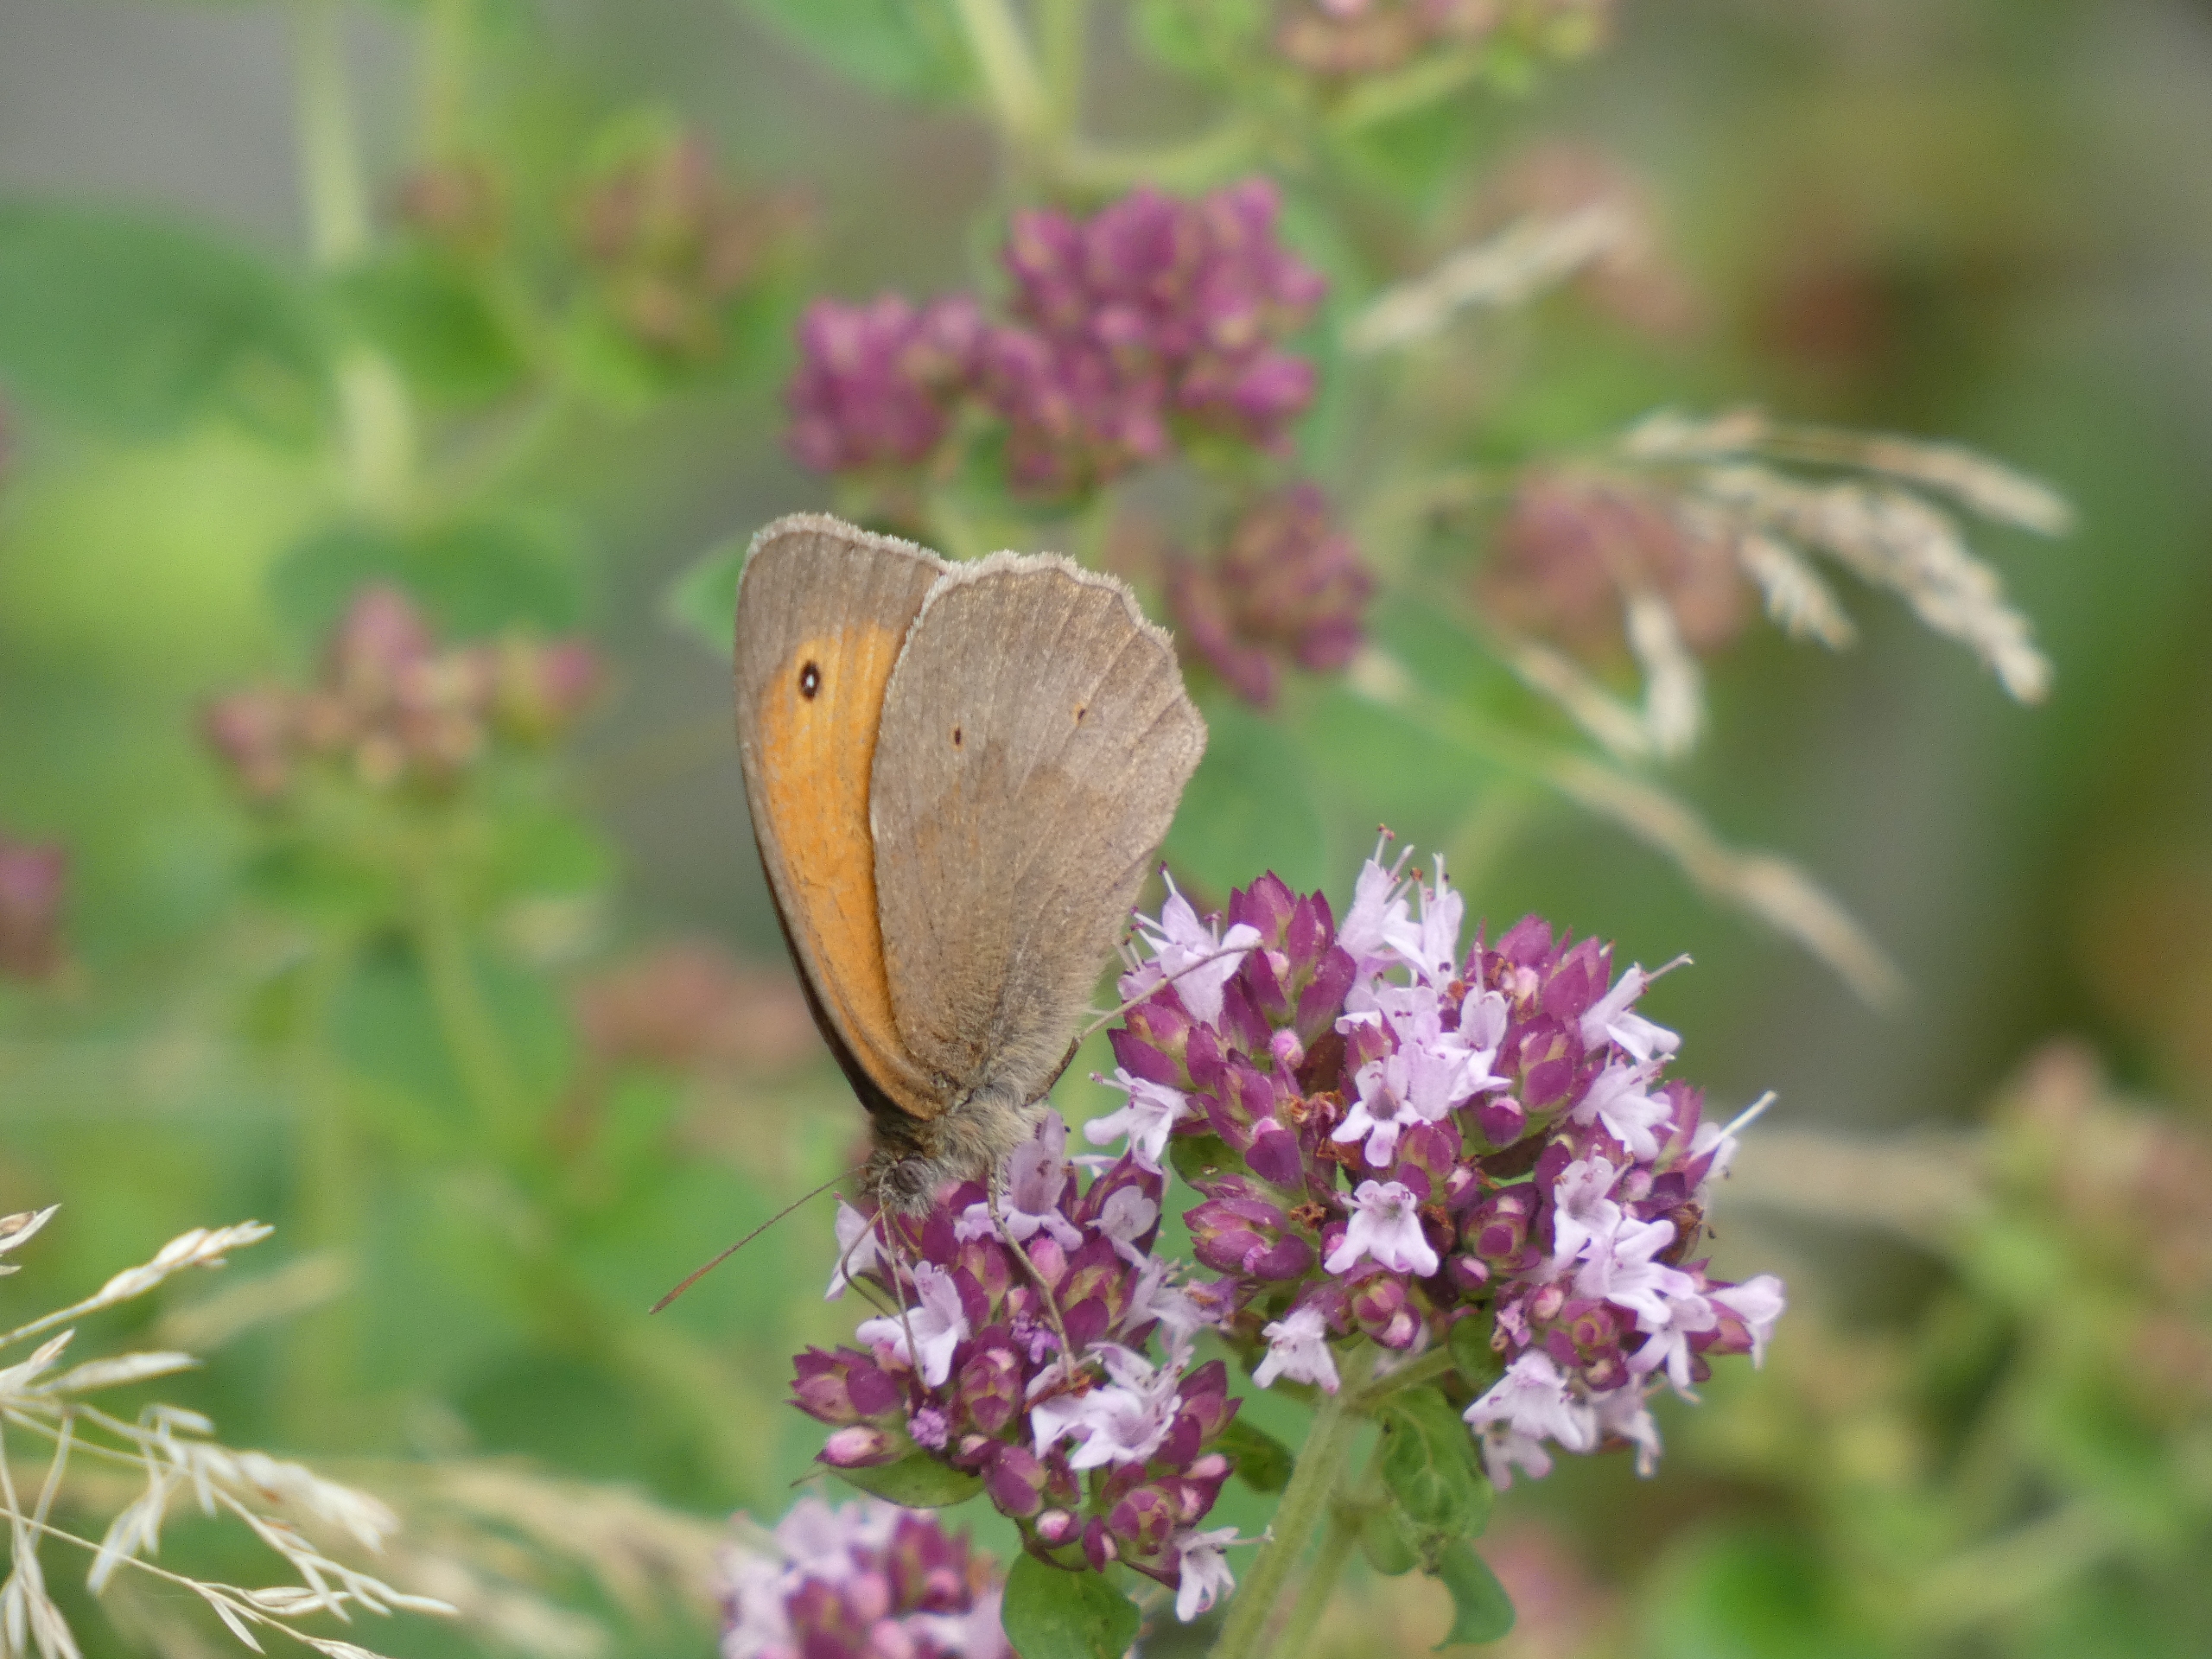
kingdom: Animalia
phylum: Arthropoda
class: Insecta
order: Lepidoptera
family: Nymphalidae
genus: Maniola
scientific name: Maniola jurtina
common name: Græsrandøje
